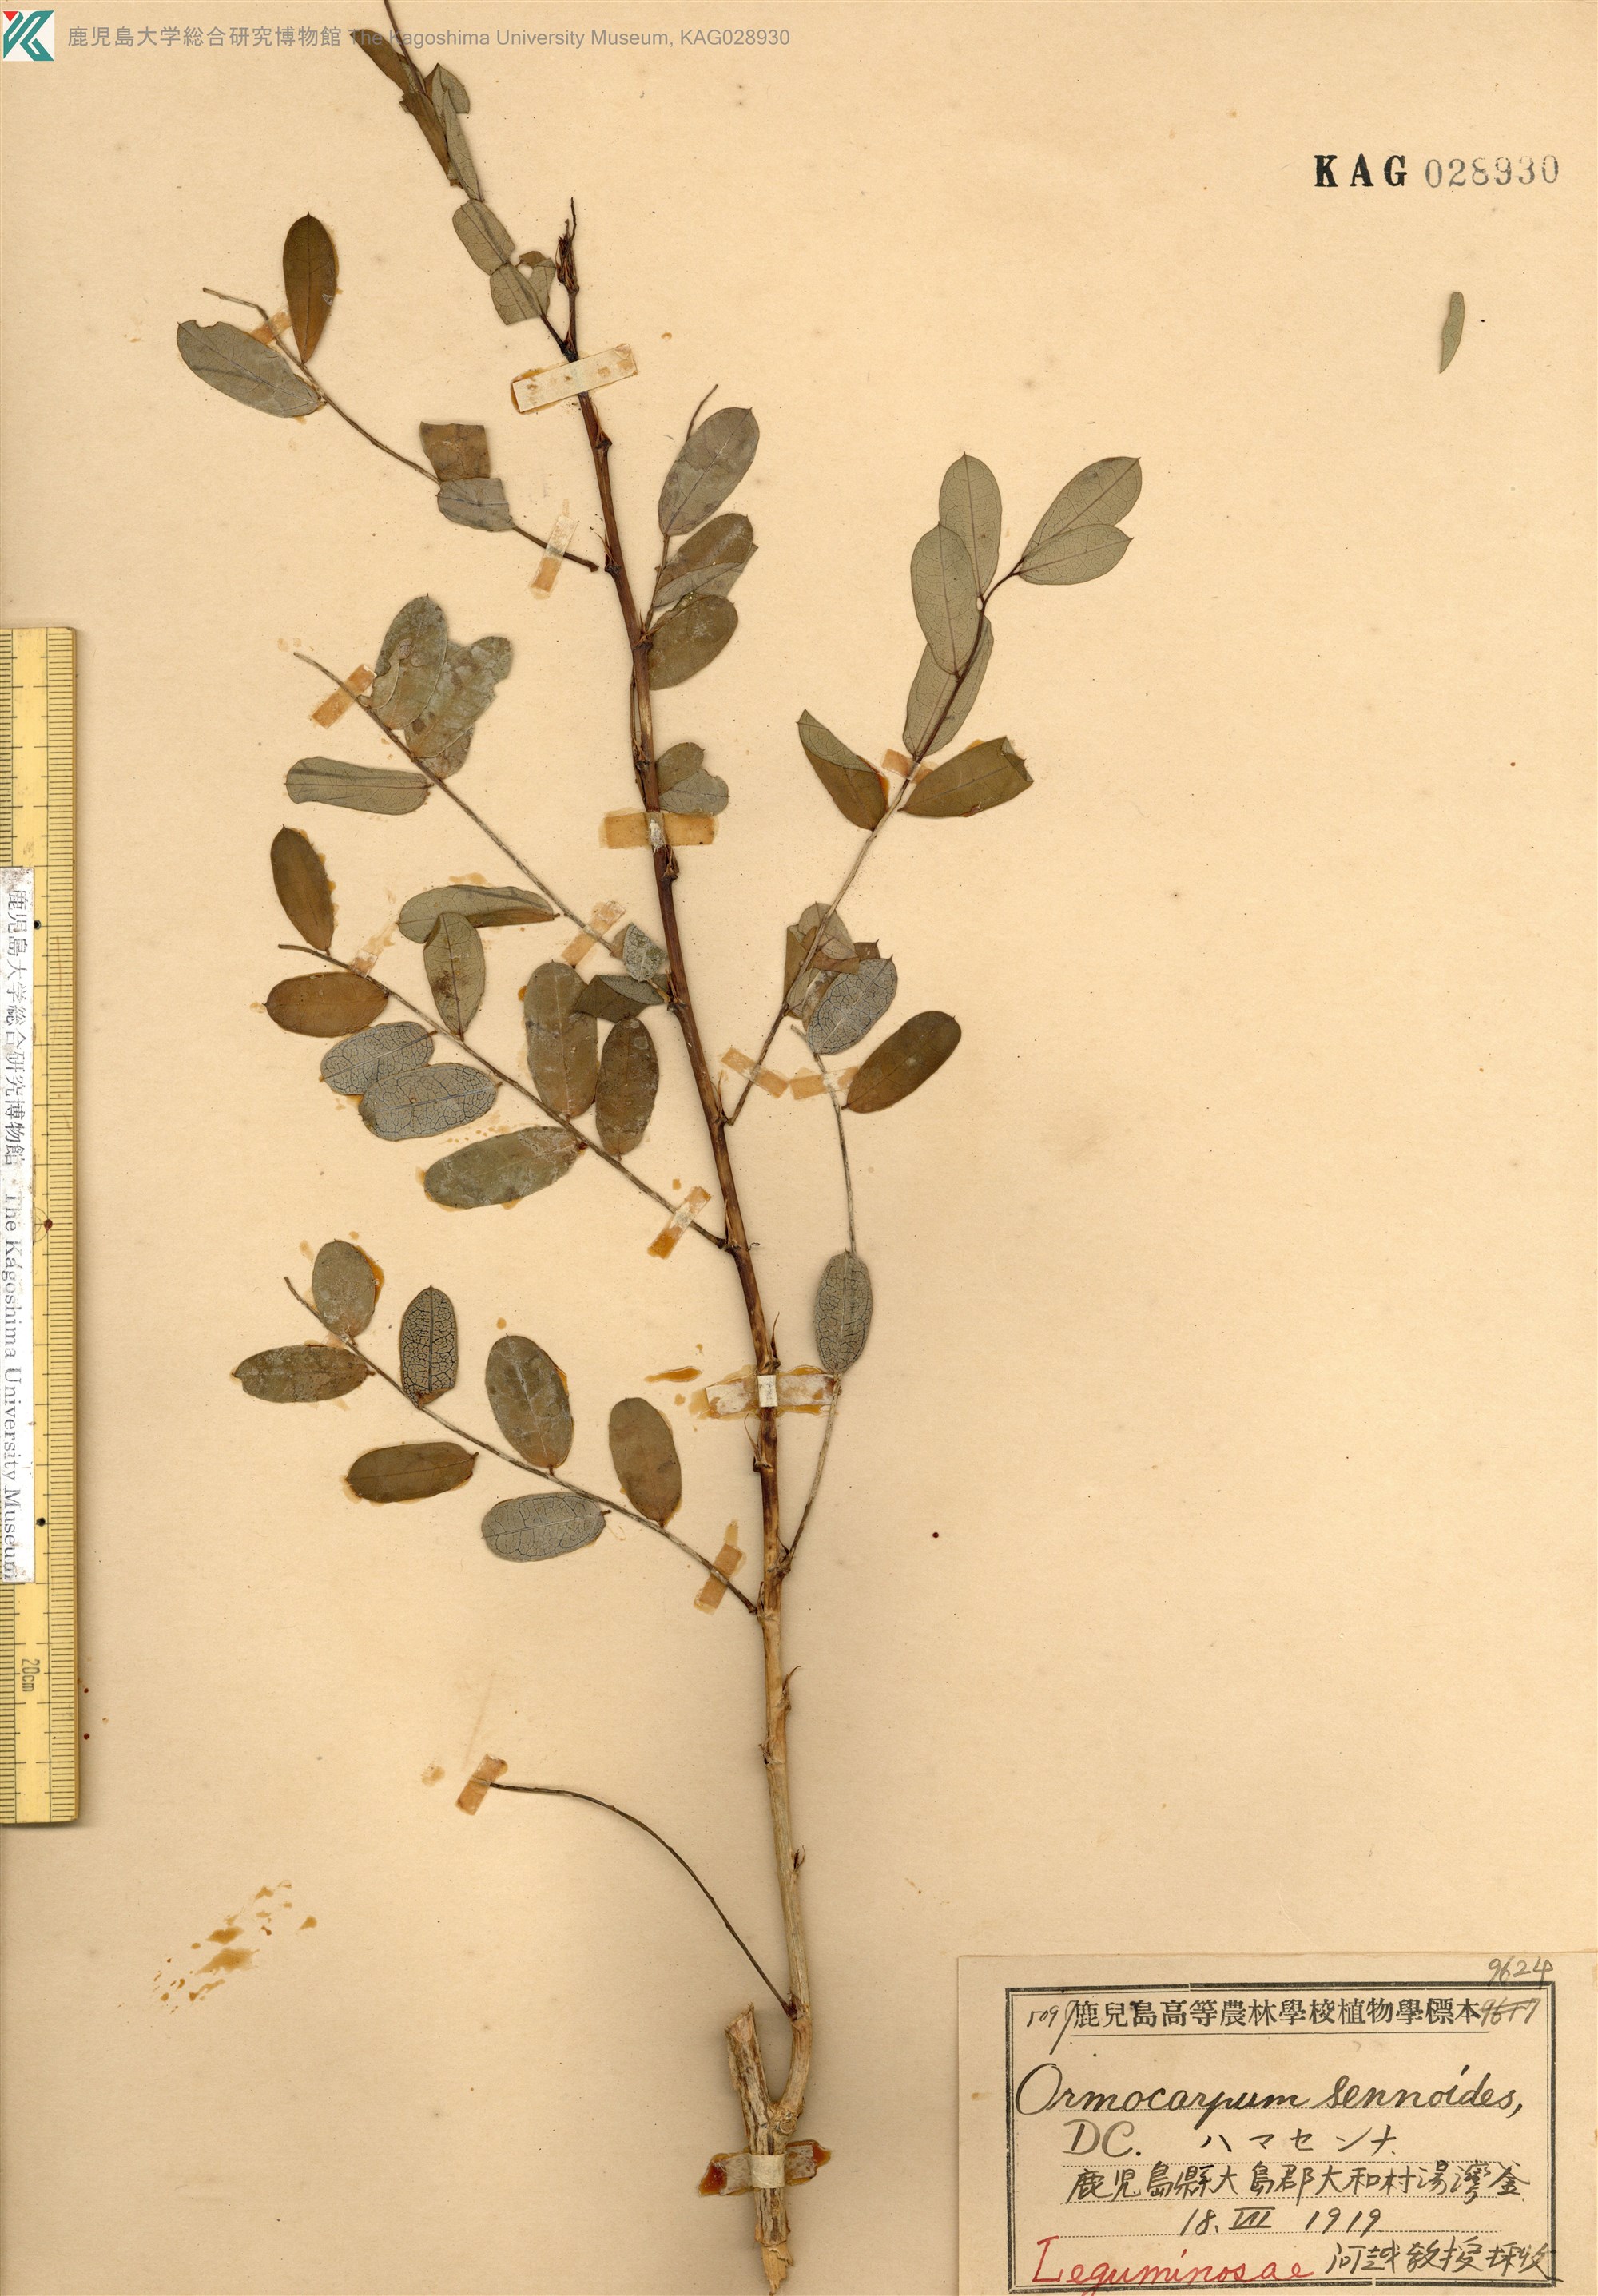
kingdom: Plantae
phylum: Tracheophyta
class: Magnoliopsida
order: Fabales
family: Fabaceae
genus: Ormocarpum
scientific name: Ormocarpum cochinchinense
